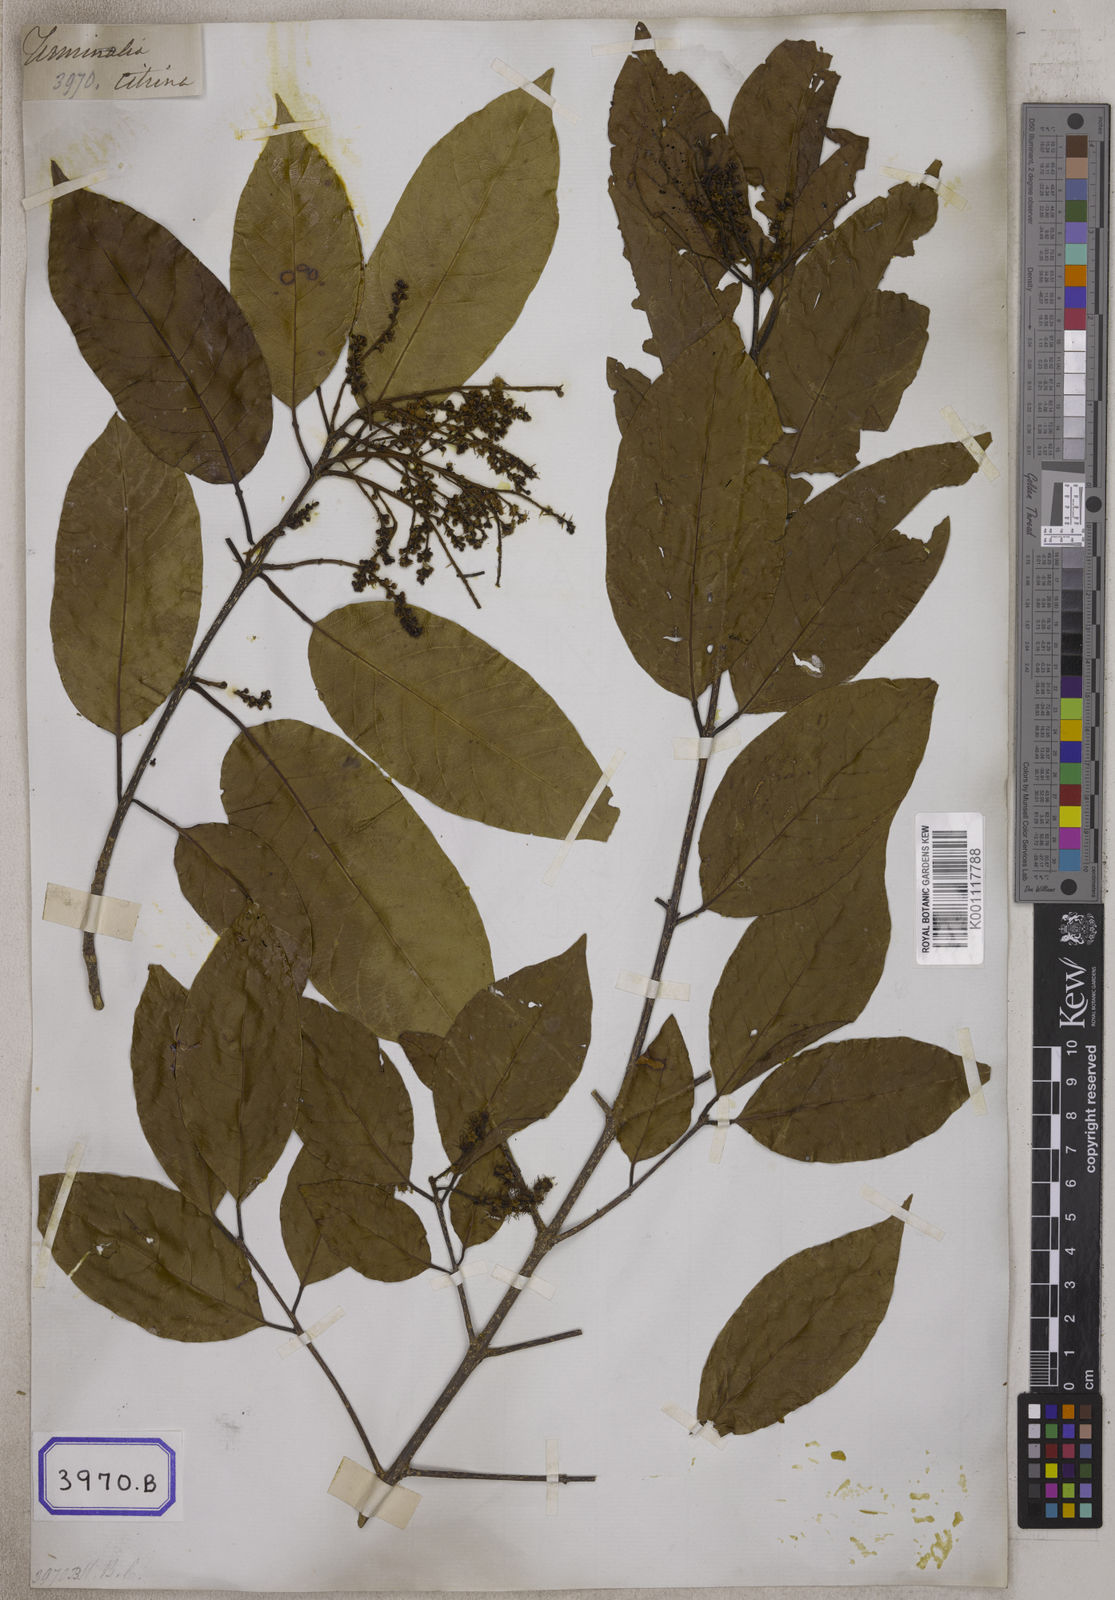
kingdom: Plantae
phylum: Tracheophyta
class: Magnoliopsida
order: Myrtales
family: Combretaceae
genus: Terminalia
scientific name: Terminalia citrina
